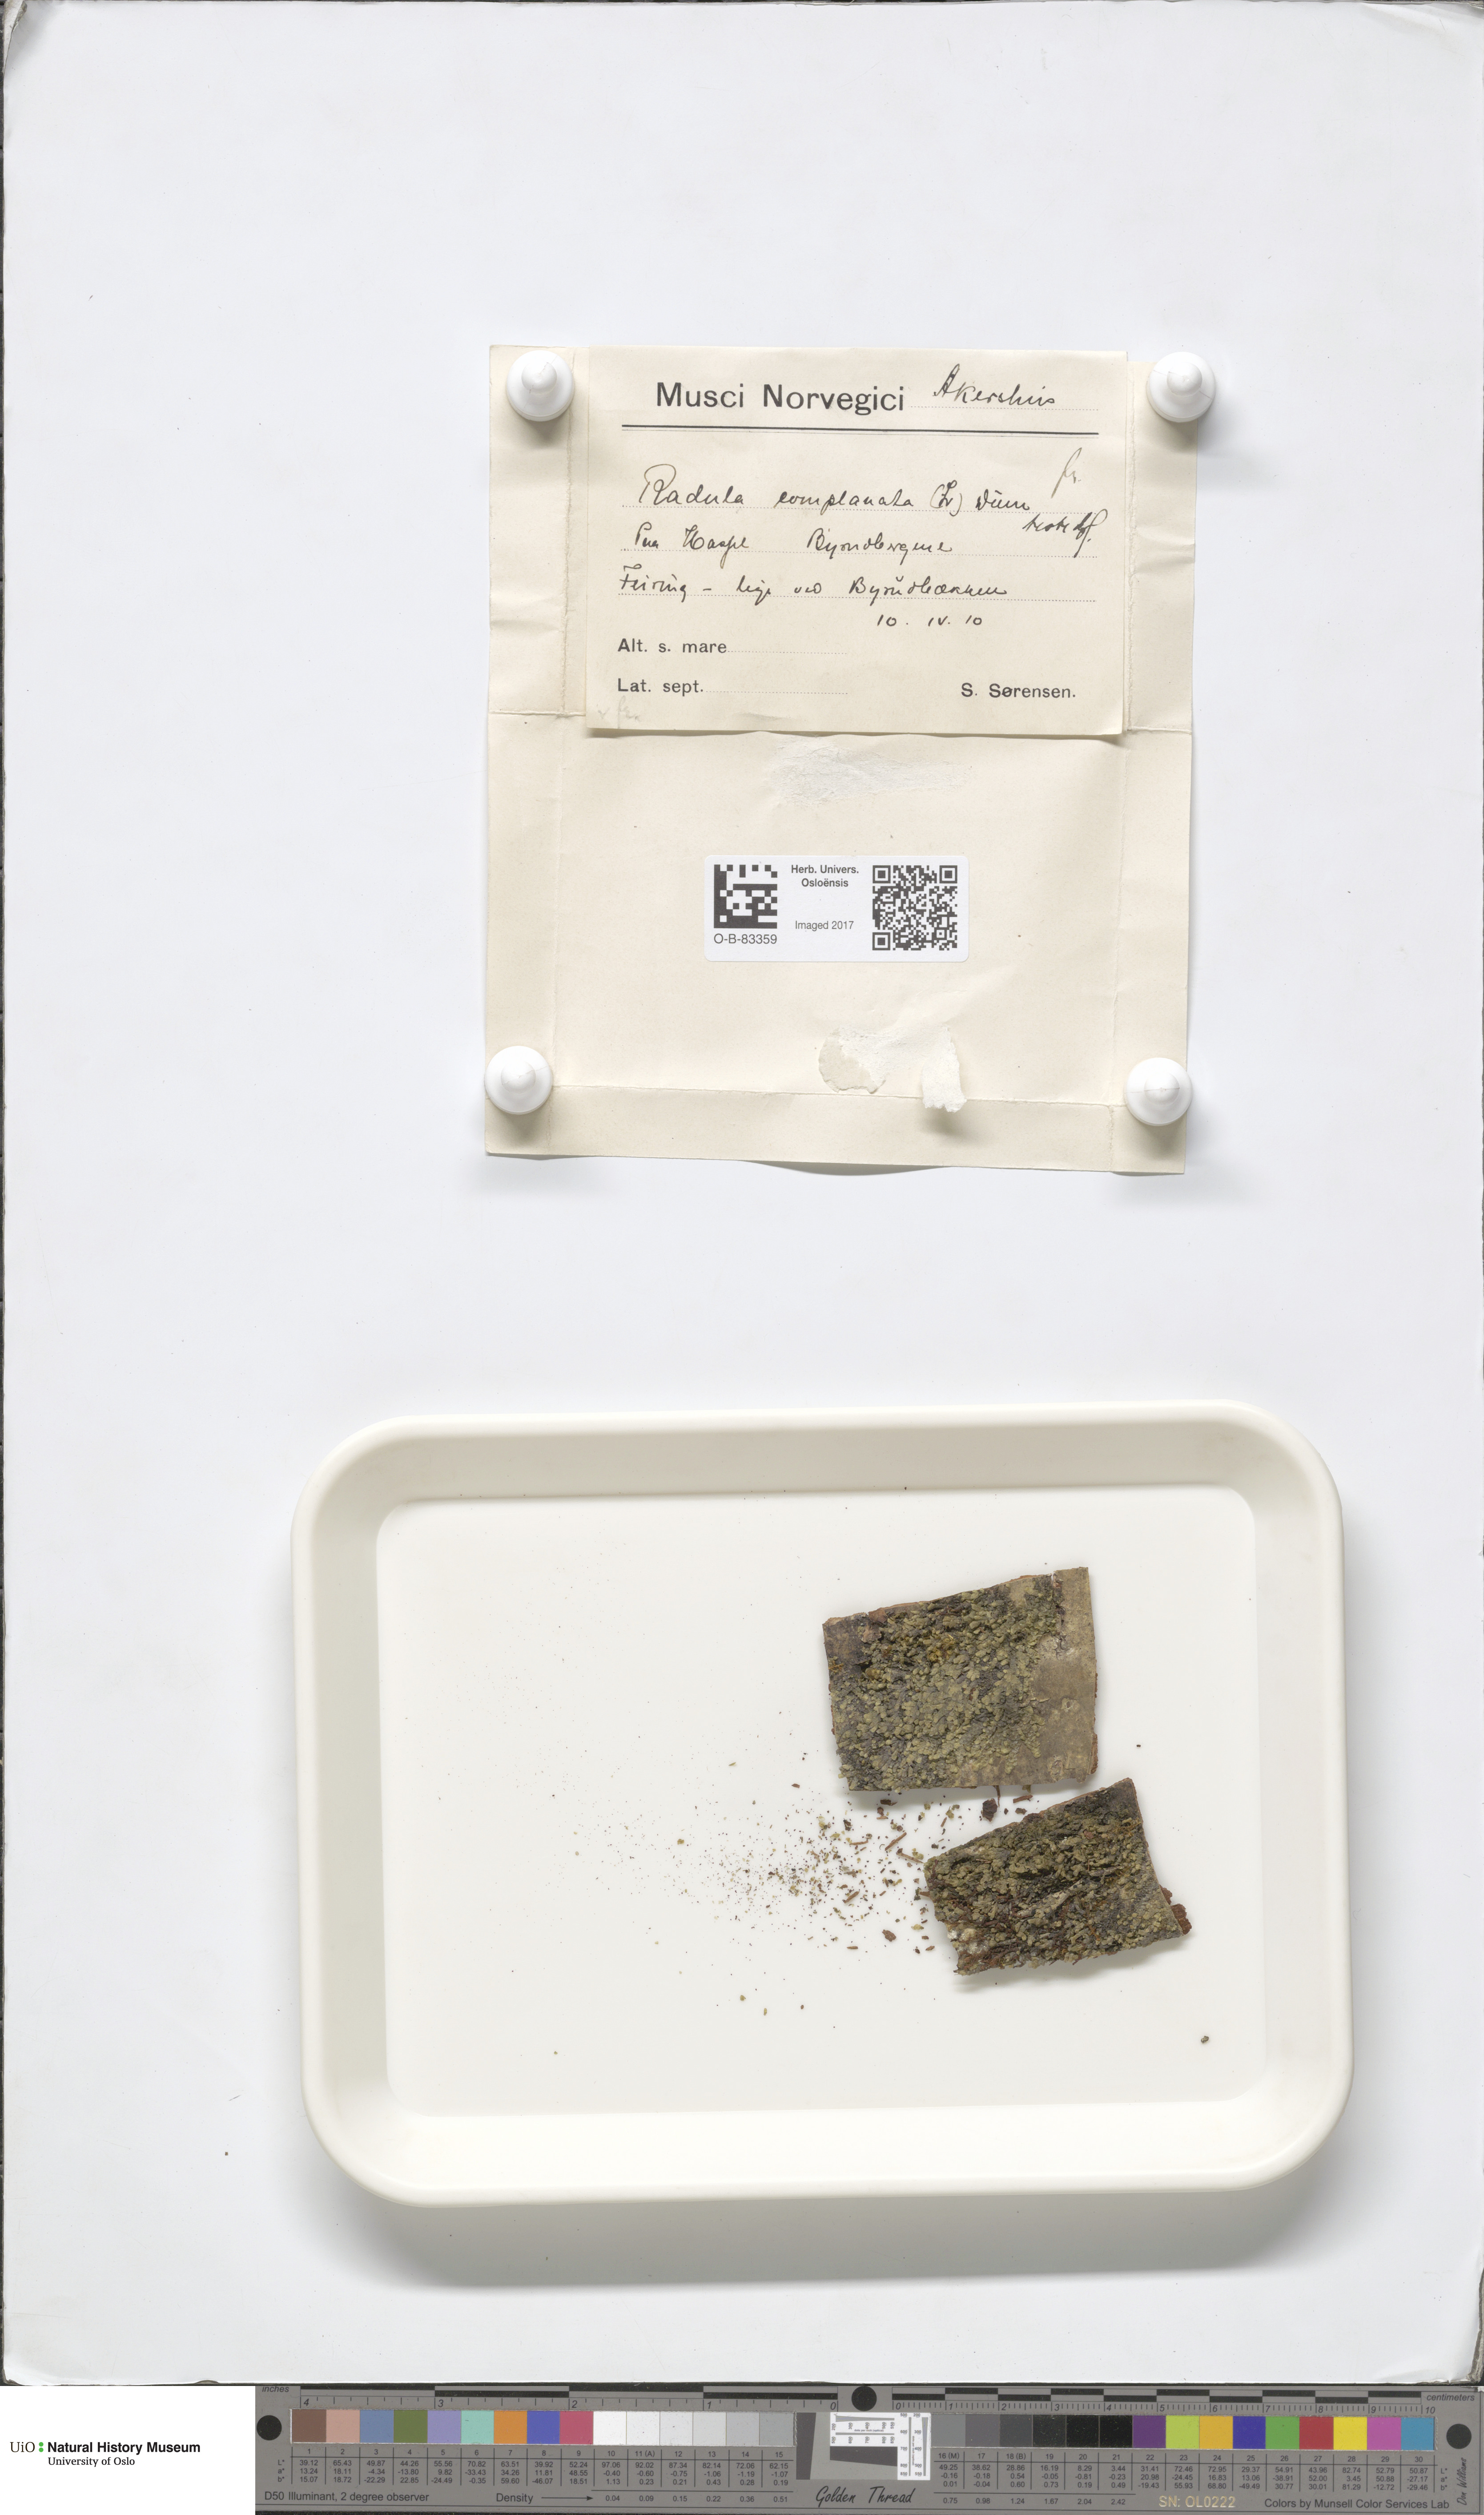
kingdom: Plantae
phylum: Marchantiophyta
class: Jungermanniopsida
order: Porellales
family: Radulaceae
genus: Radula
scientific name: Radula complanata
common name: Flat-leaved scalewort
